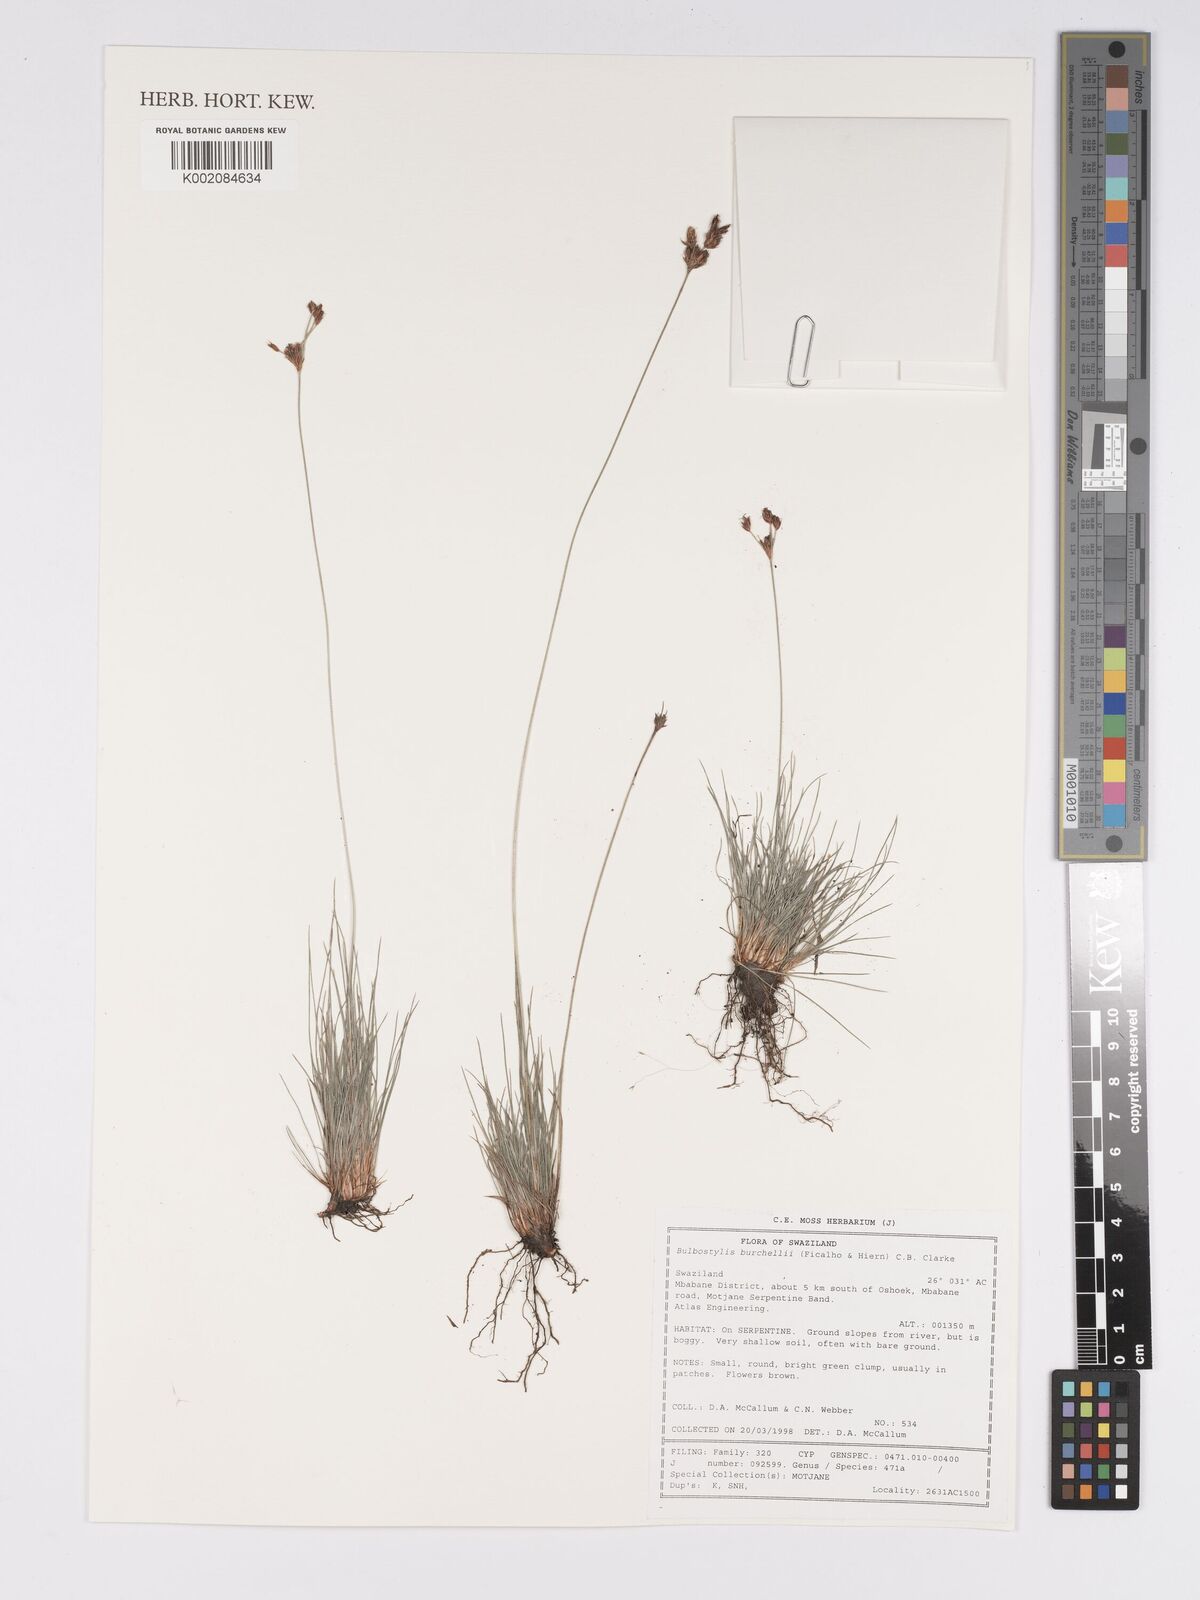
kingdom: Plantae
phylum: Tracheophyta
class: Liliopsida
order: Poales
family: Cyperaceae
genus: Bulbostylis
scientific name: Bulbostylis burchellii
